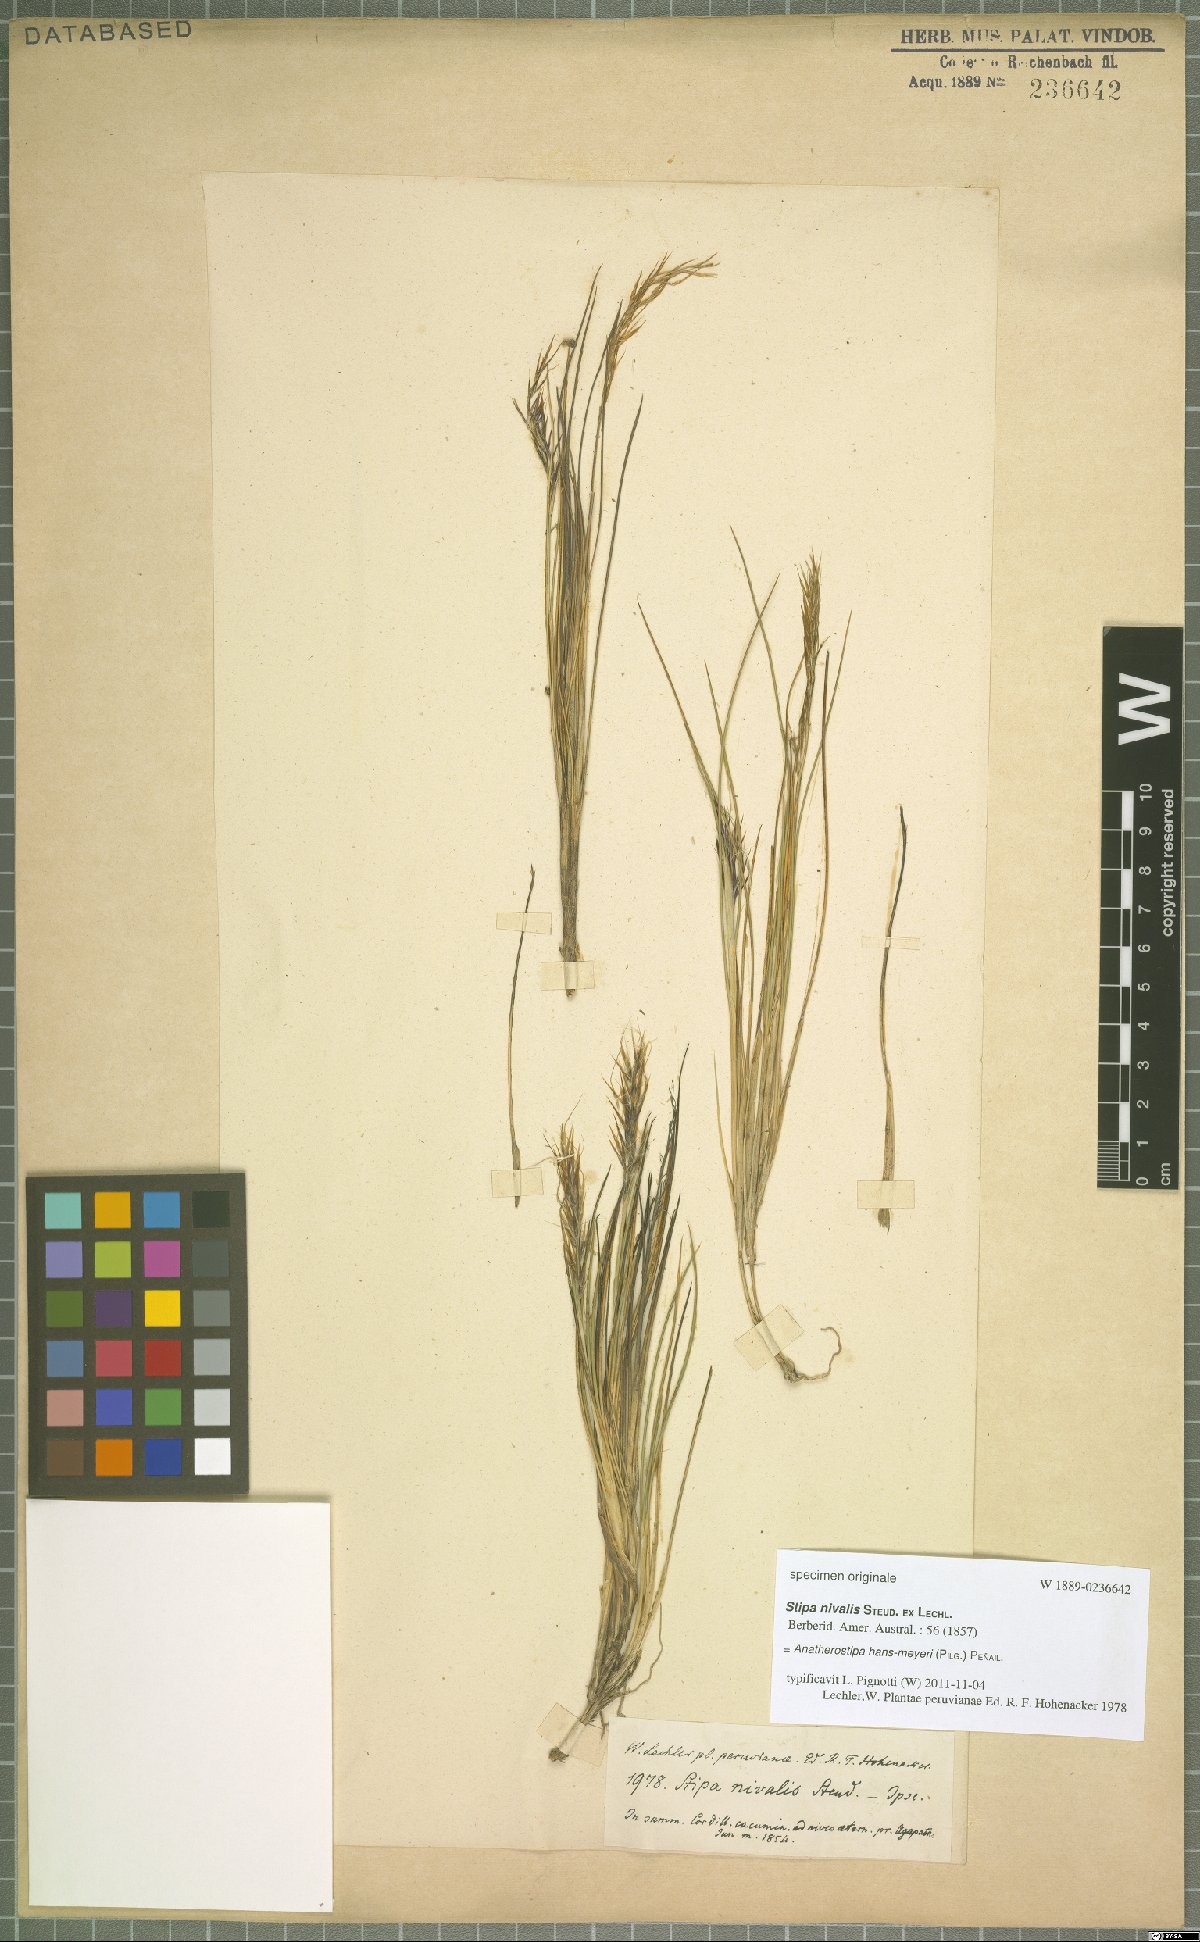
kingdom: Plantae
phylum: Tracheophyta
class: Liliopsida
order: Poales
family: Poaceae
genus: Stipa
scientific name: Stipa hans-meyeri
